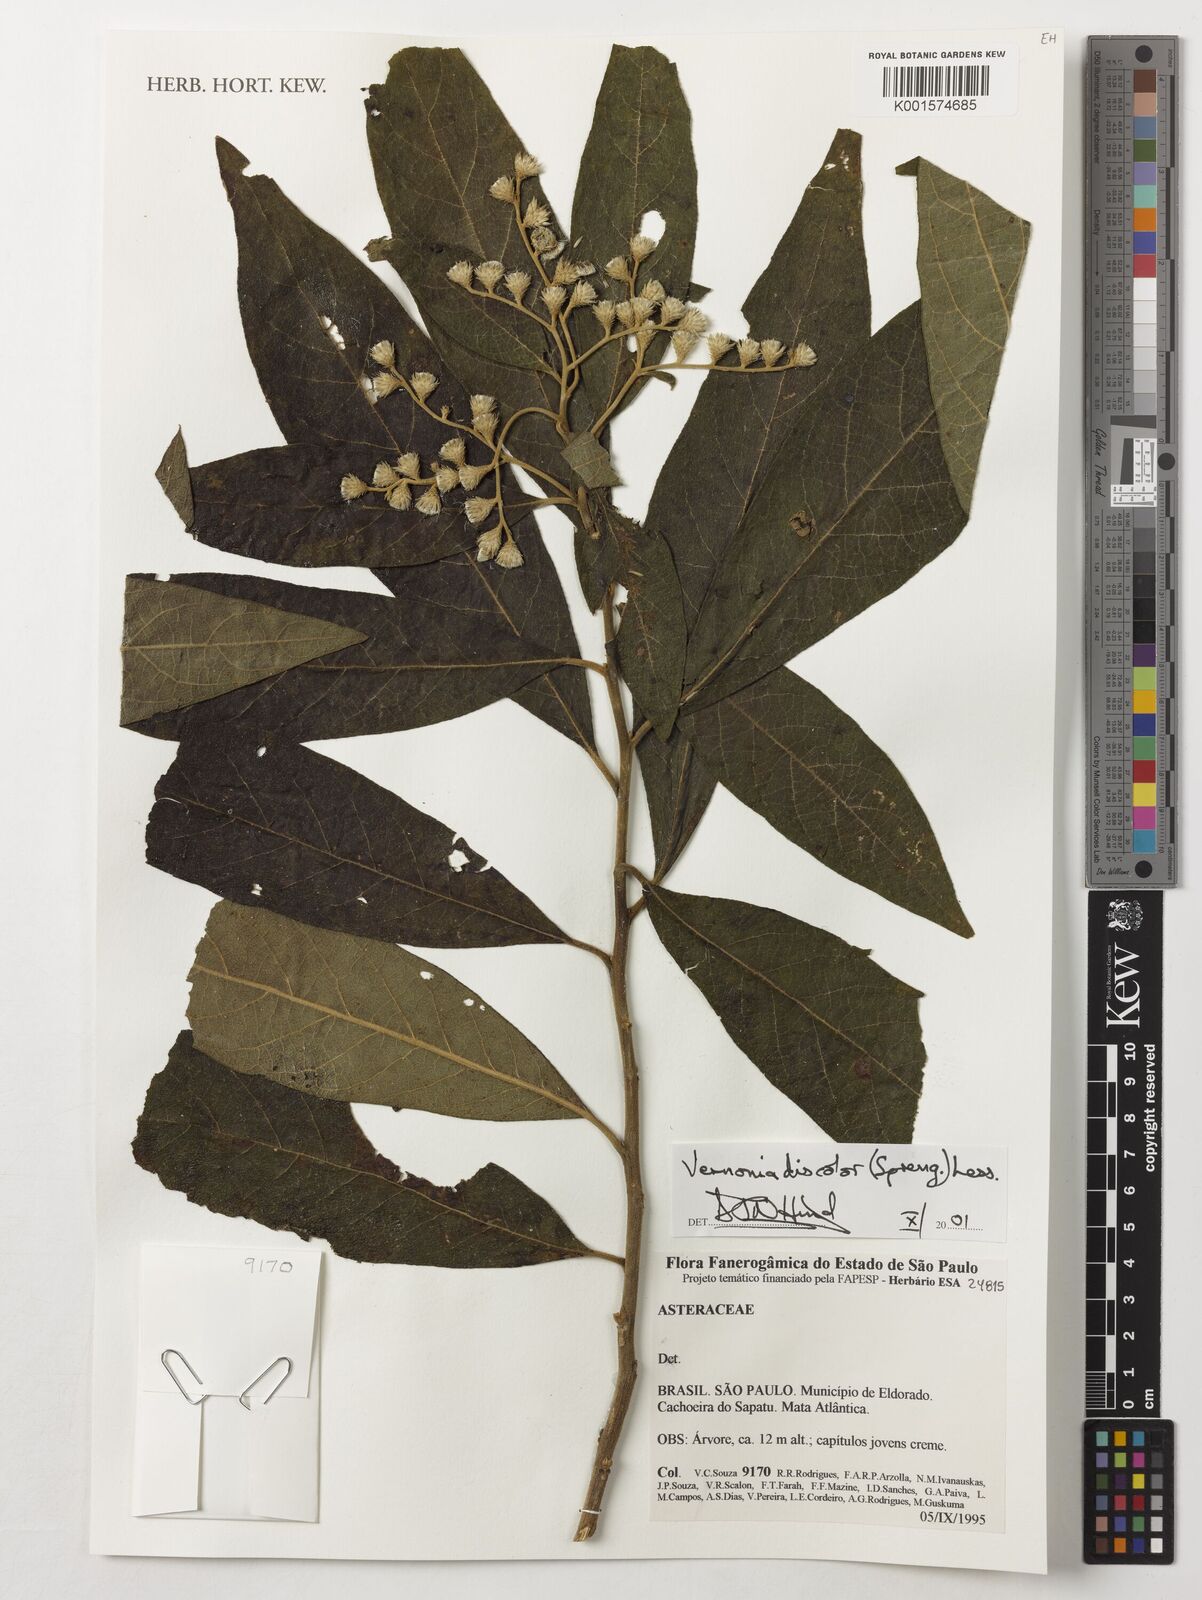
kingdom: Plantae
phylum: Tracheophyta
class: Magnoliopsida
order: Asterales
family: Asteraceae
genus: Vernonanthura
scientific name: Vernonanthura discolor
